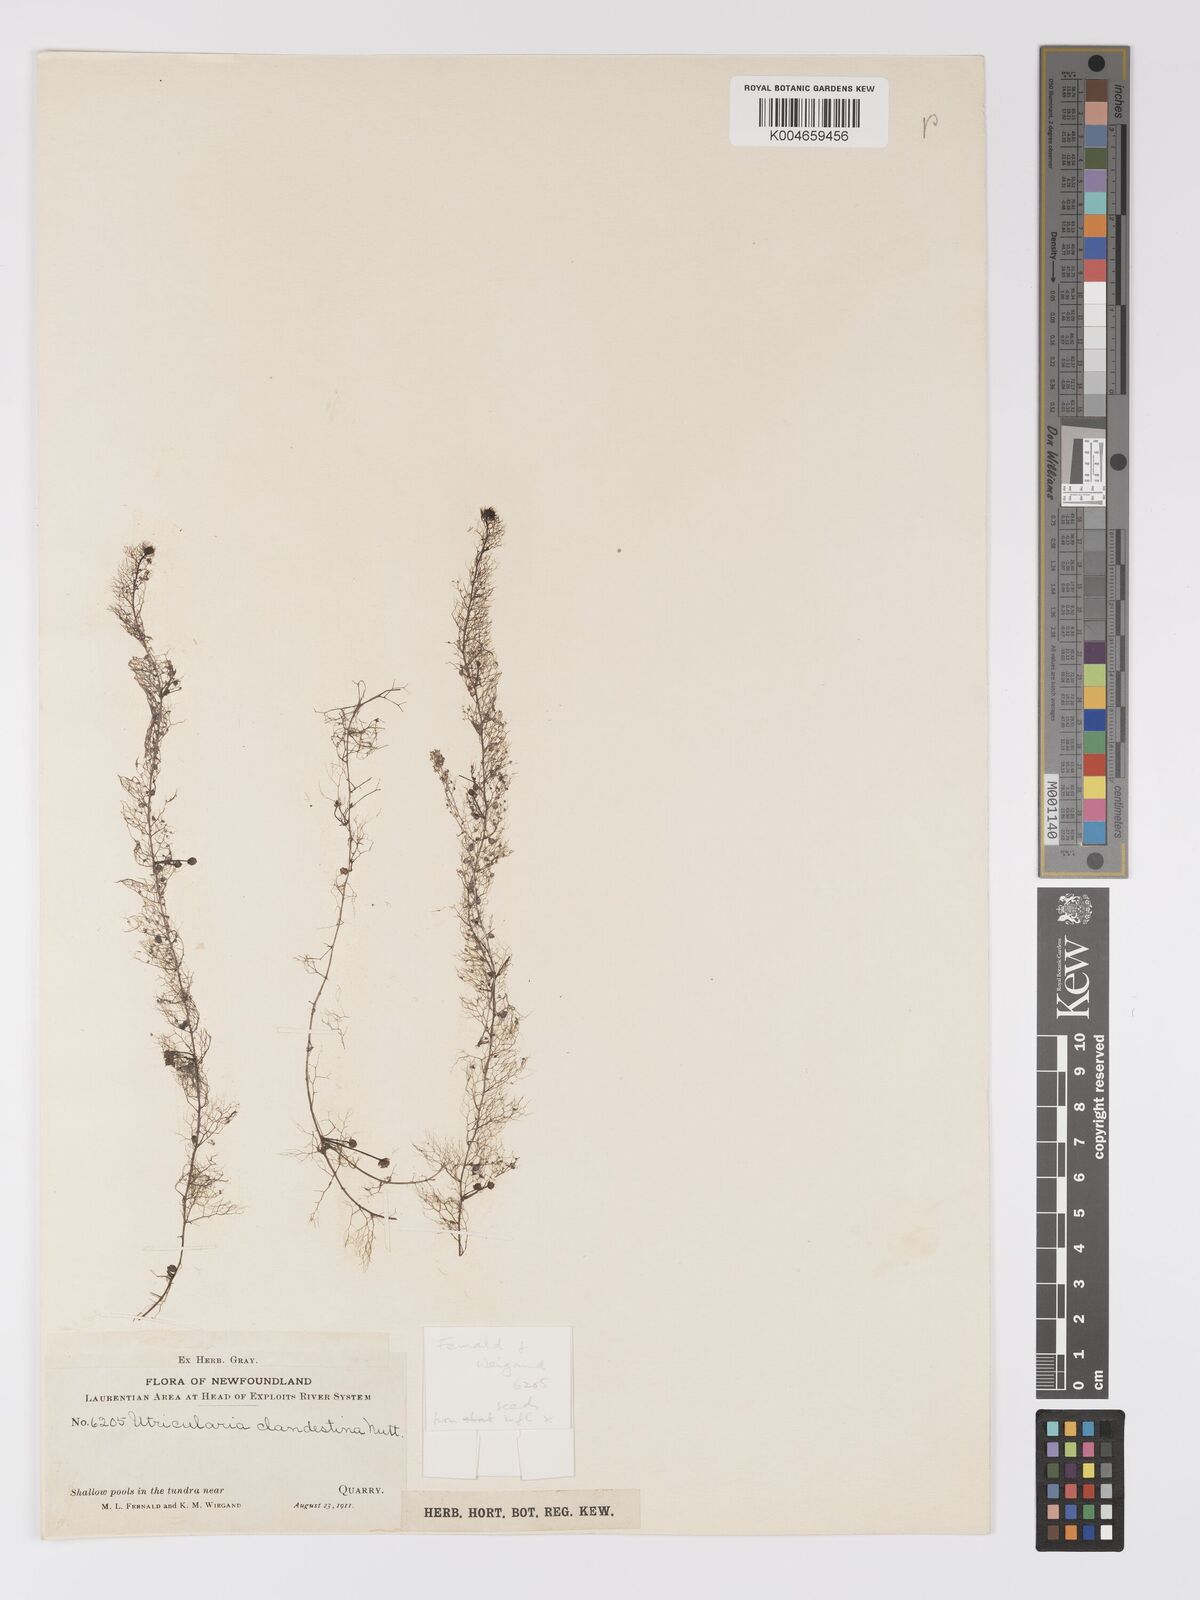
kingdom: Plantae
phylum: Tracheophyta
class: Magnoliopsida
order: Lamiales
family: Lentibulariaceae
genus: Utricularia
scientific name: Utricularia geminiscapa
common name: Hidden-fruit bladderwort
